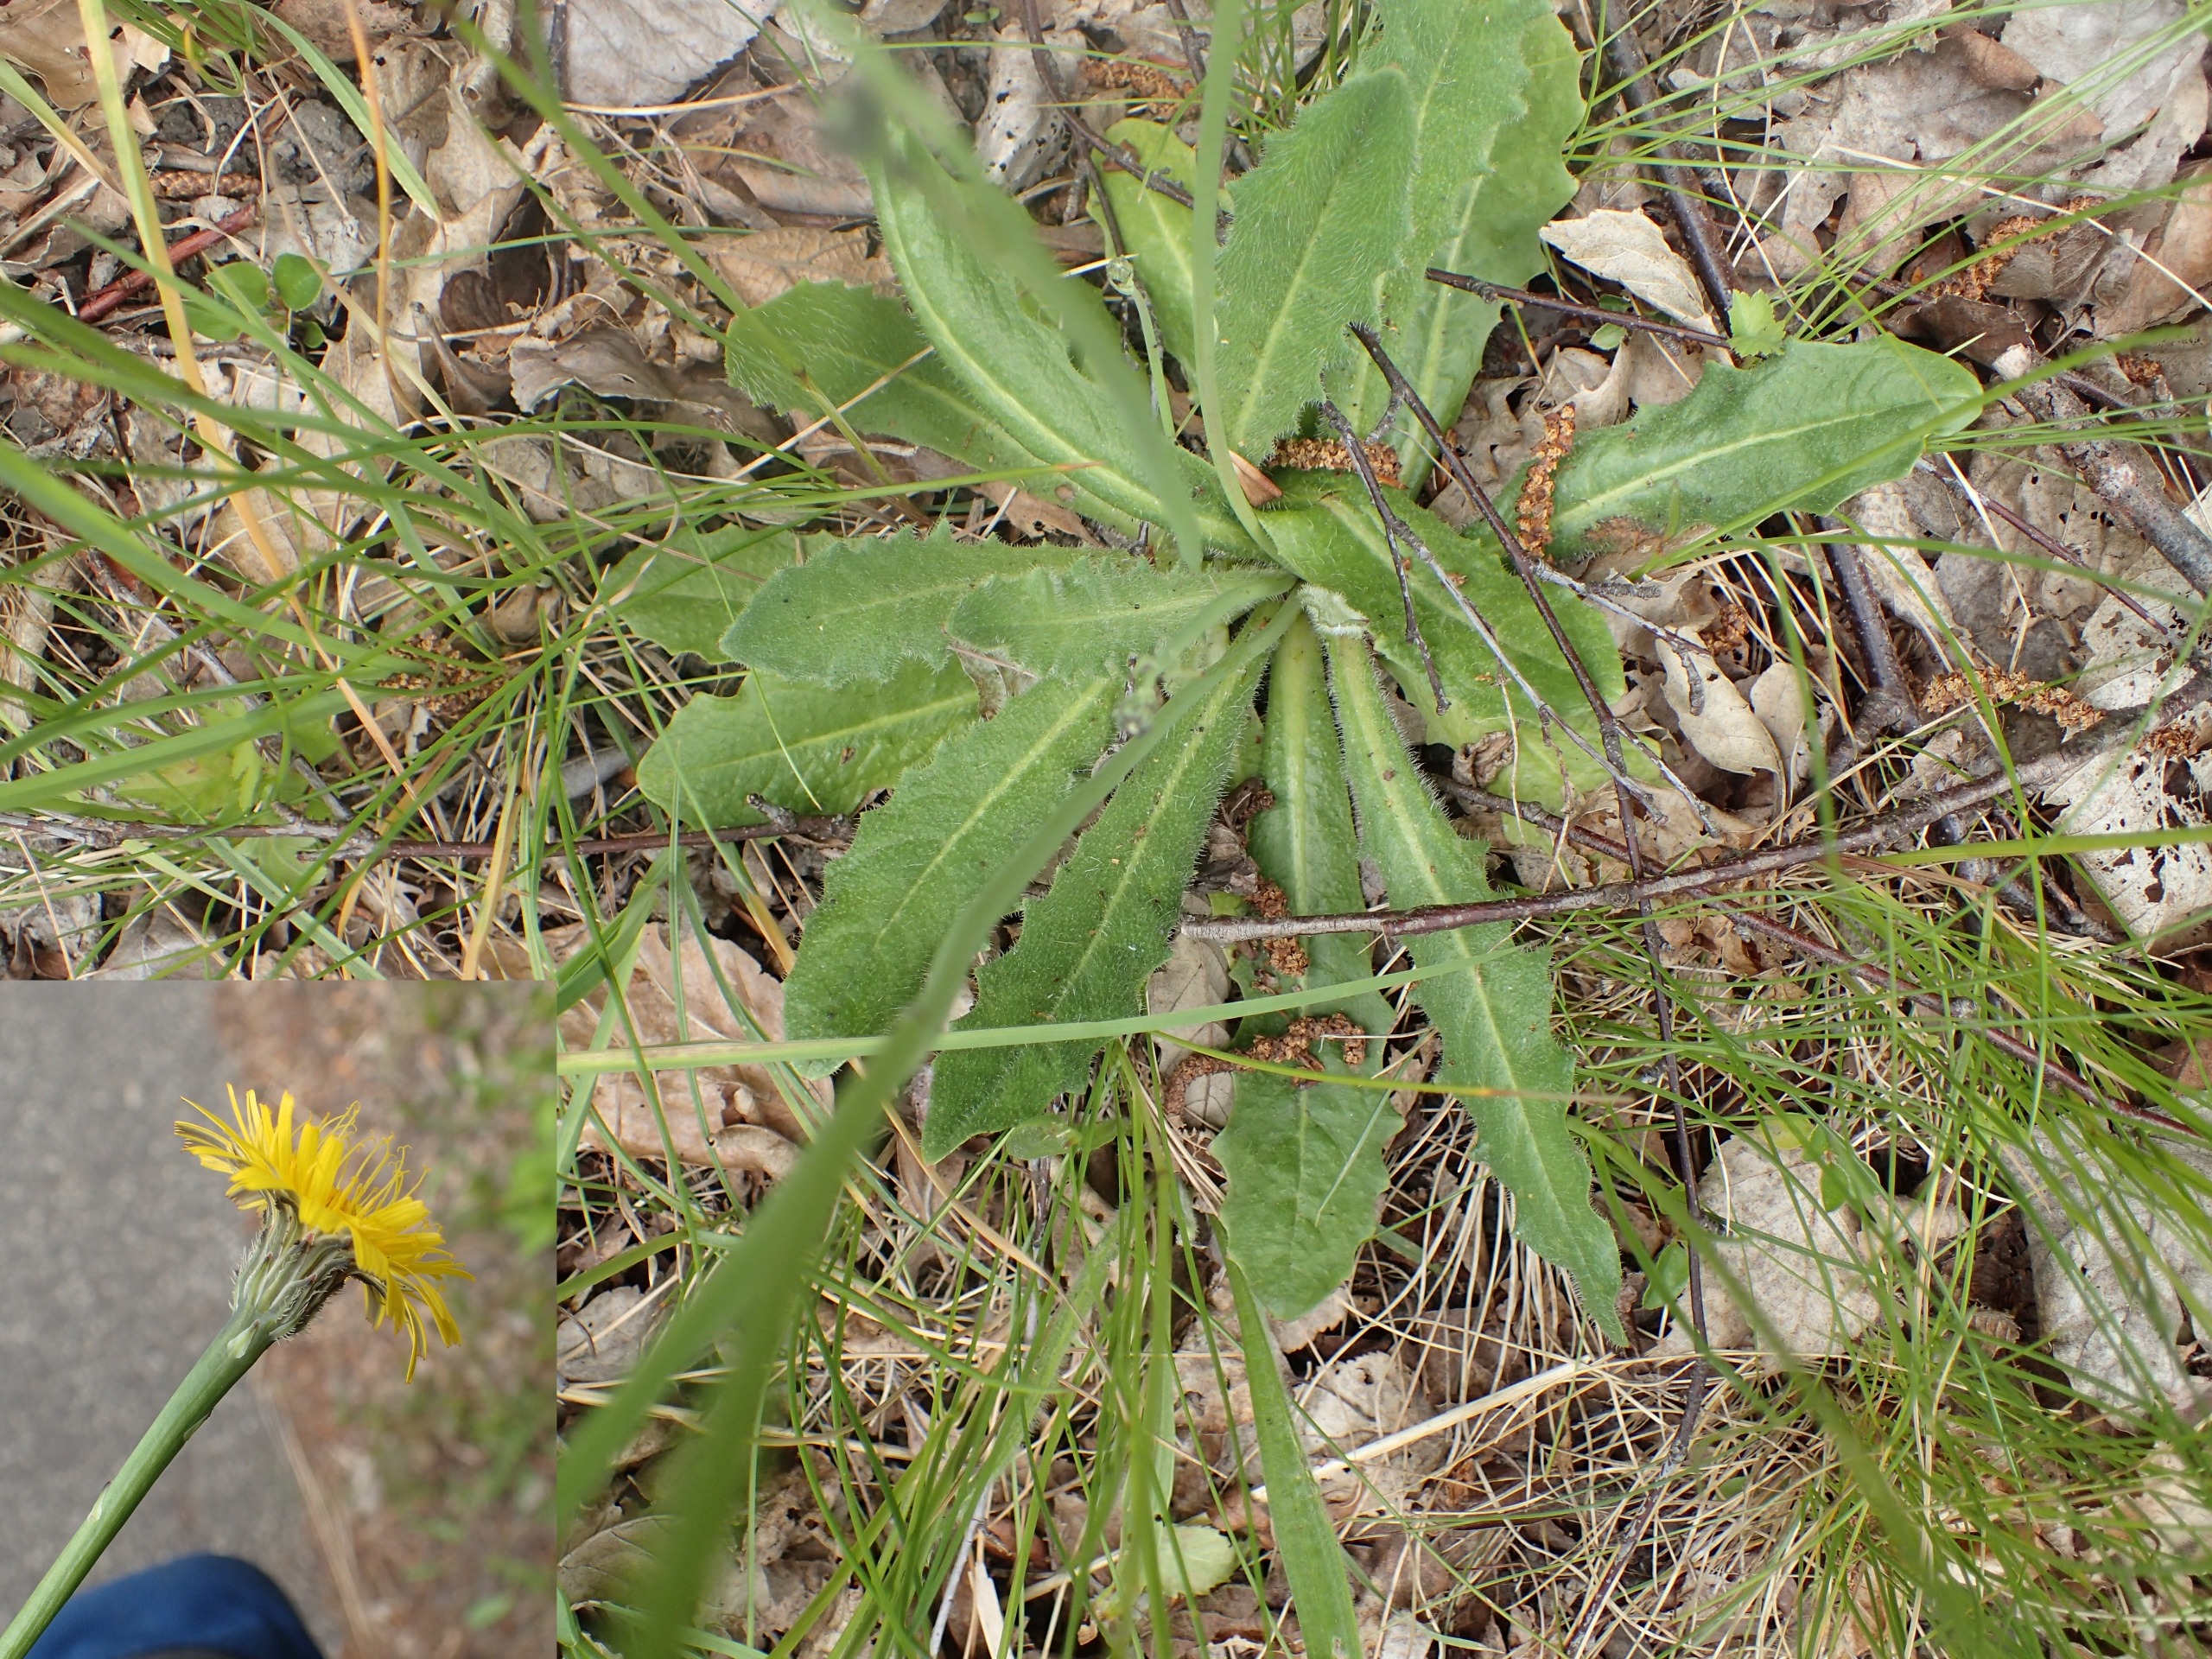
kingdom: Plantae
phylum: Tracheophyta
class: Magnoliopsida
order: Asterales
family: Asteraceae
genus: Hypochaeris
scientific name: Hypochaeris radicata
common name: Almindelig kongepen
